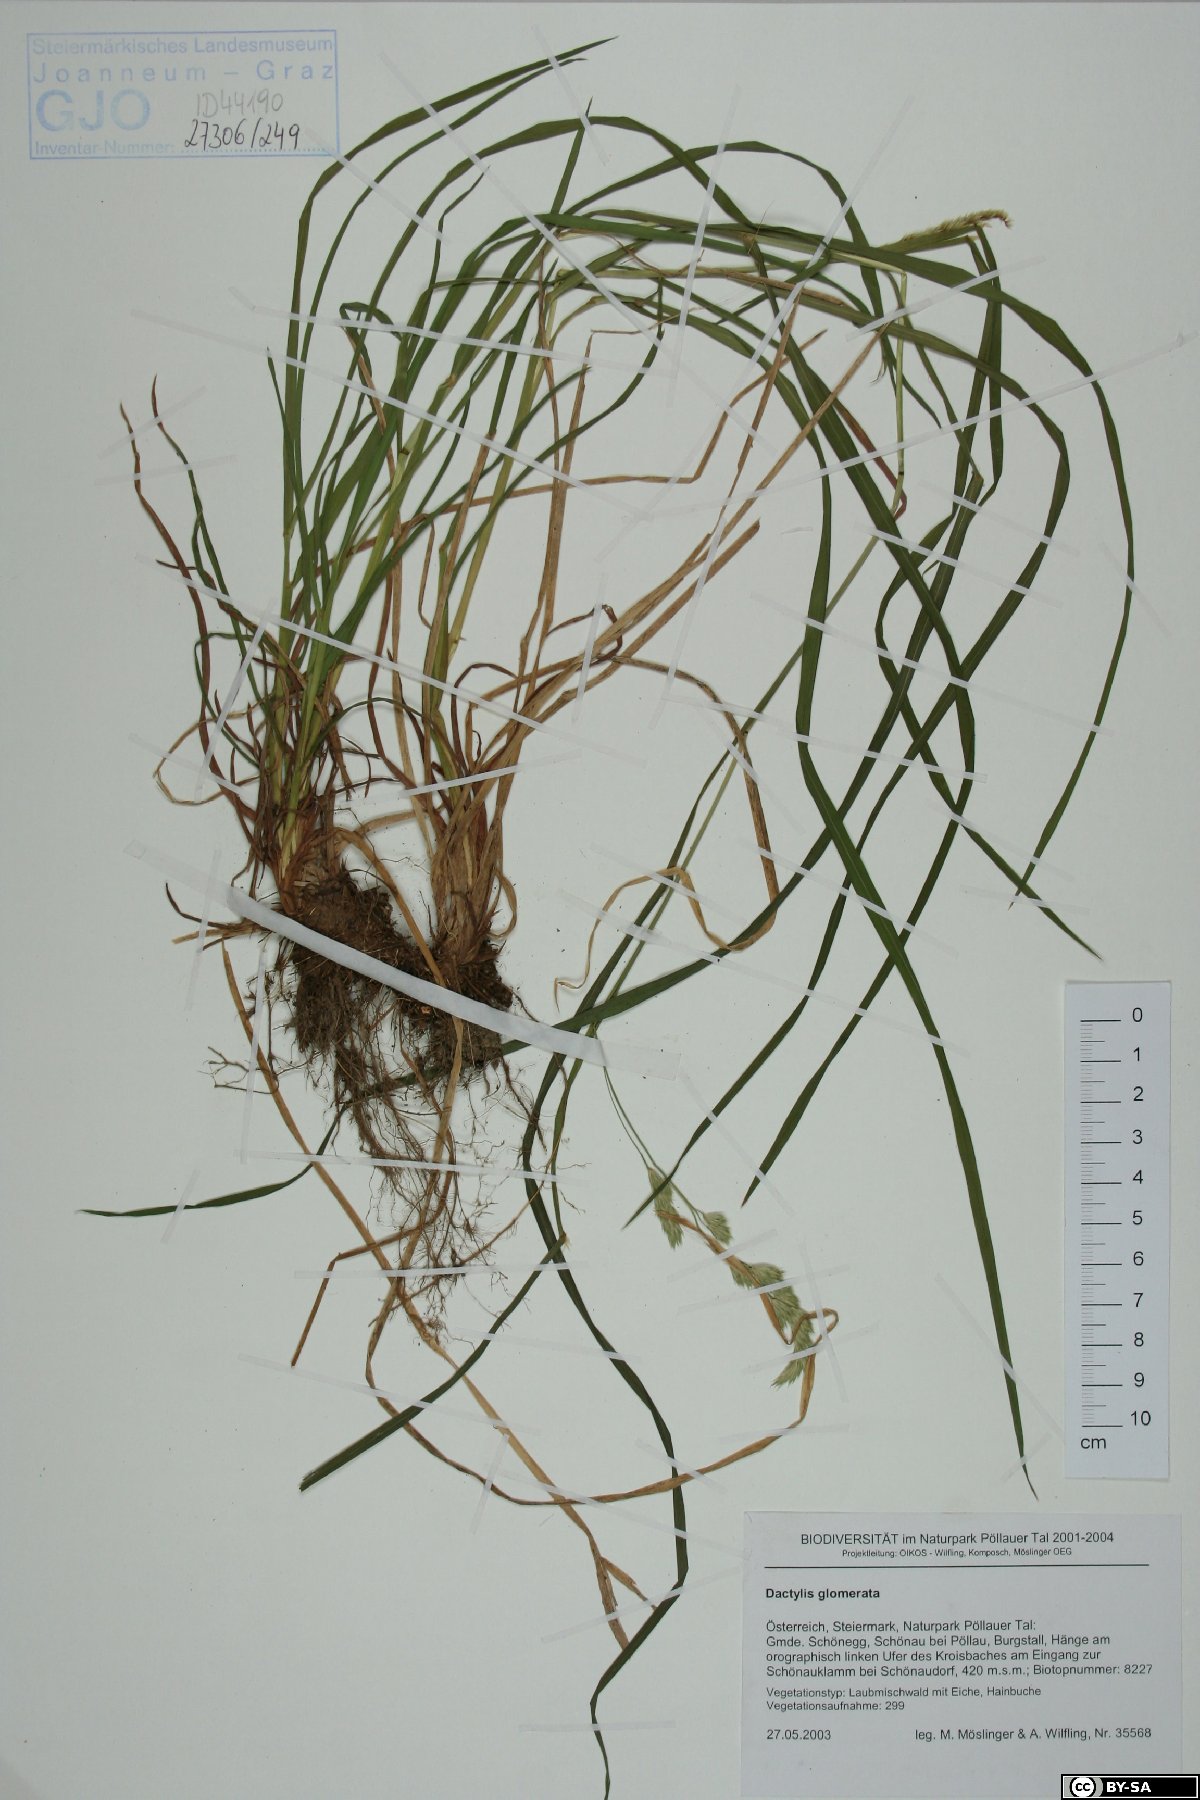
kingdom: Plantae
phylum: Tracheophyta
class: Liliopsida
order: Poales
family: Poaceae
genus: Dactylis
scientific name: Dactylis glomerata
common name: Orchardgrass
